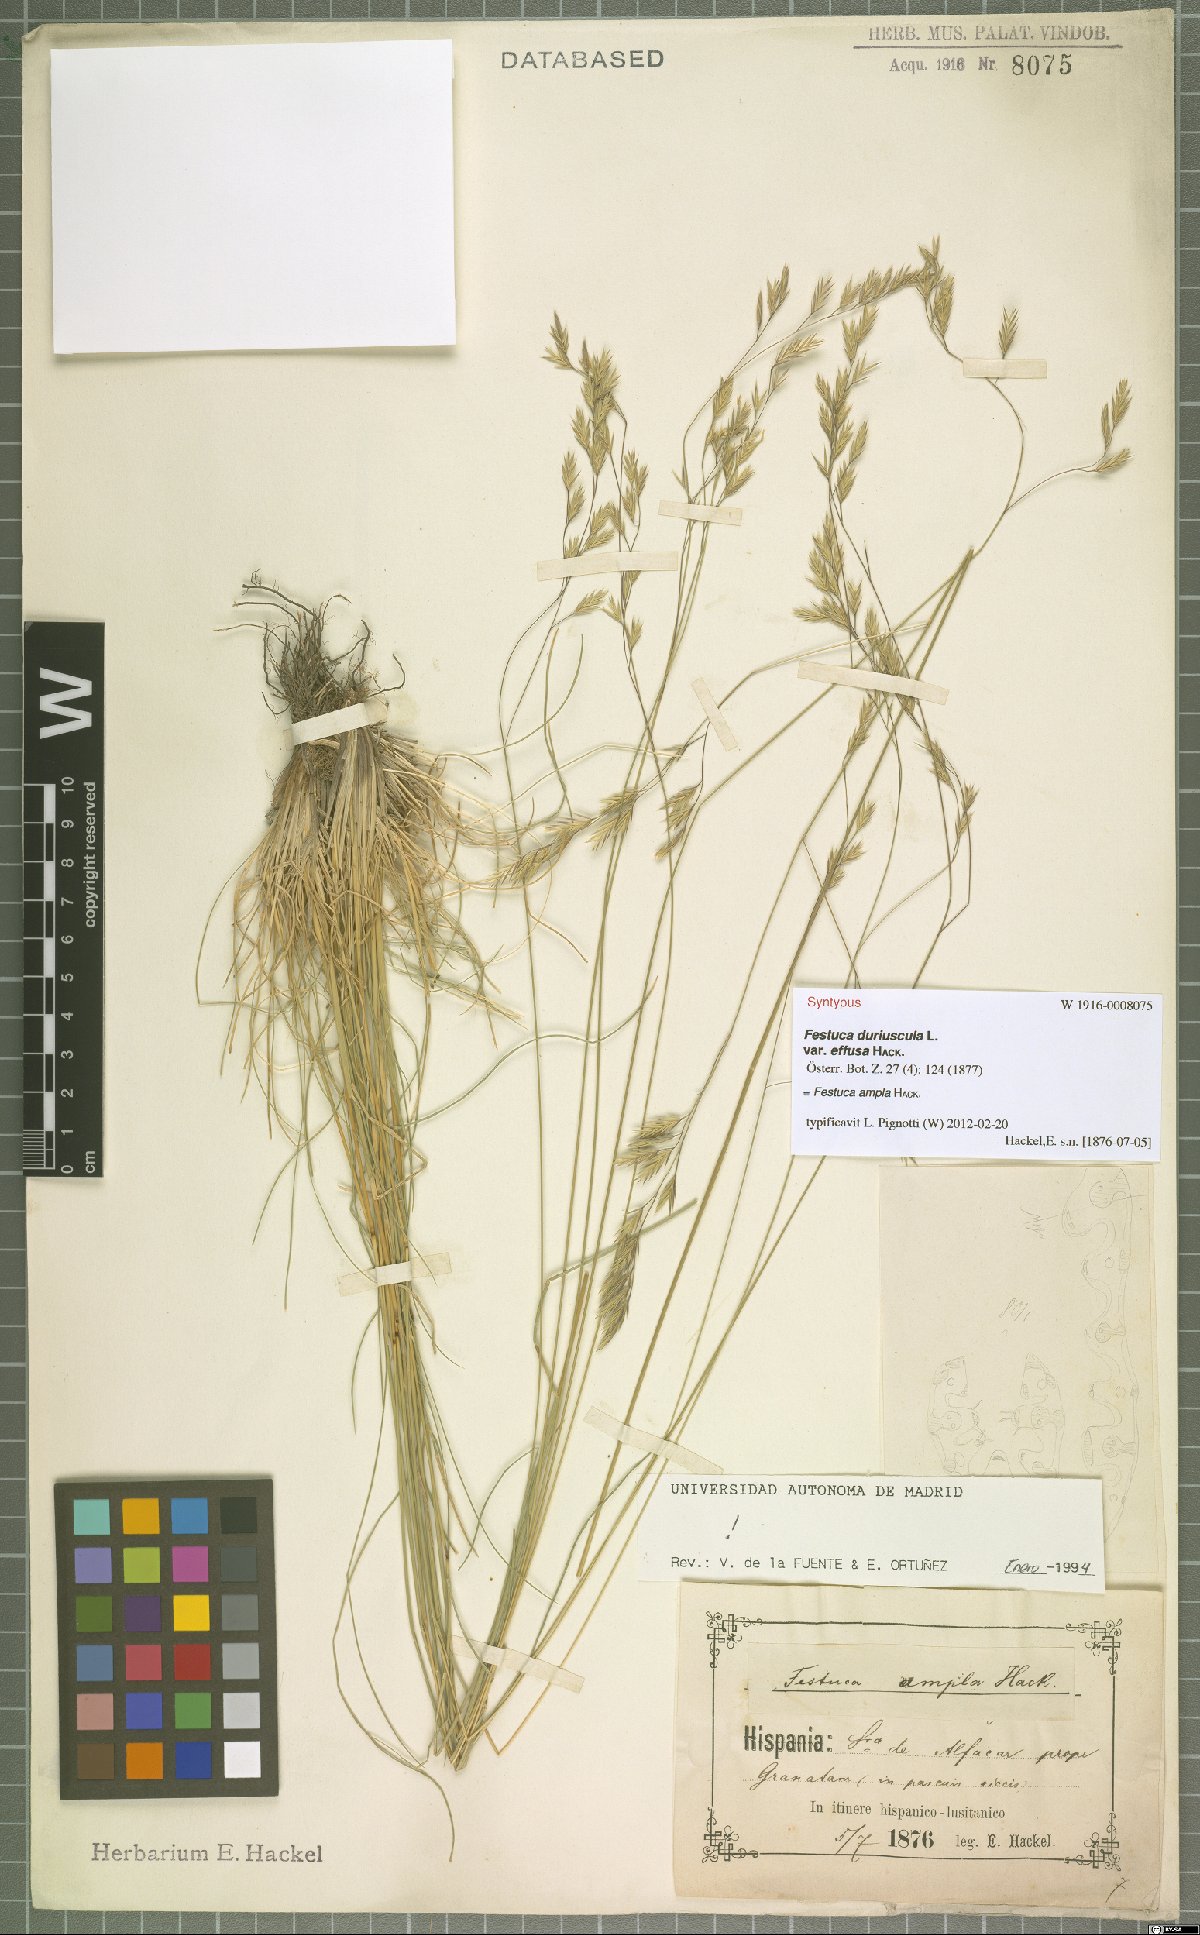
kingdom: Plantae
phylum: Tracheophyta
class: Liliopsida
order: Poales
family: Poaceae
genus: Festuca
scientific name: Festuca ampla
